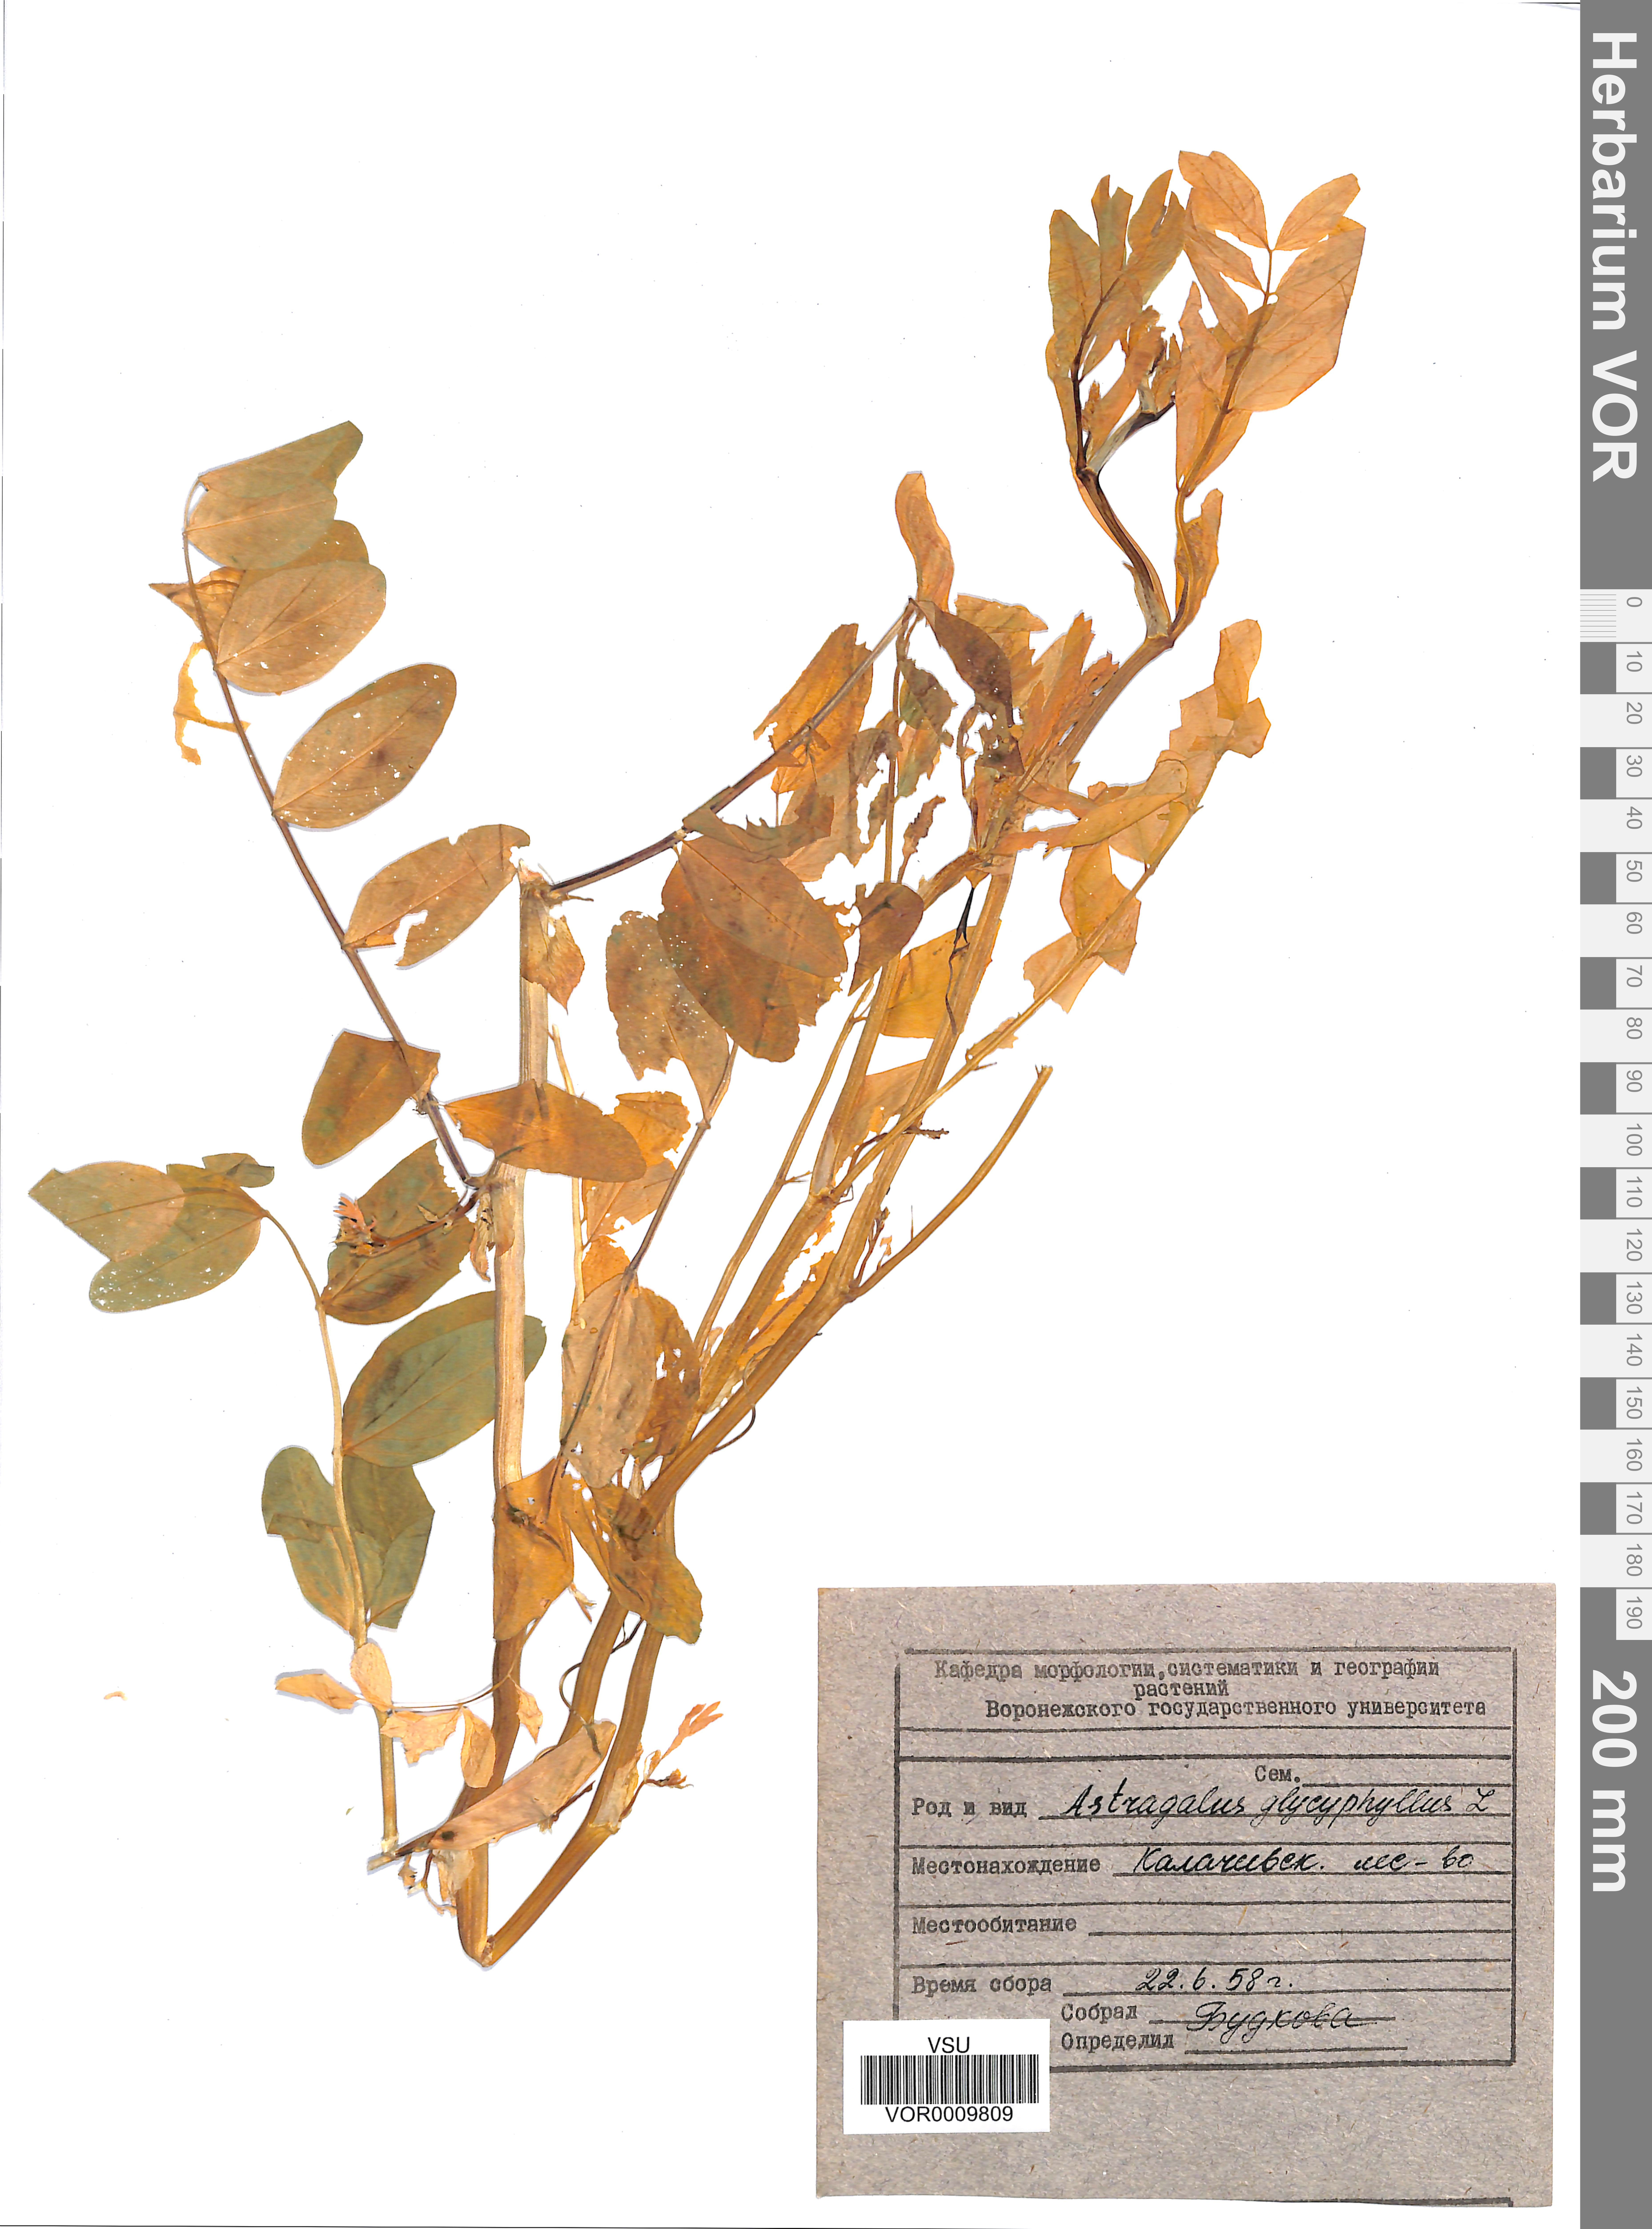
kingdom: Plantae
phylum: Tracheophyta
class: Magnoliopsida
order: Fabales
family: Fabaceae
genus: Astragalus
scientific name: Astragalus glycyphyllos
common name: Wild liquorice
